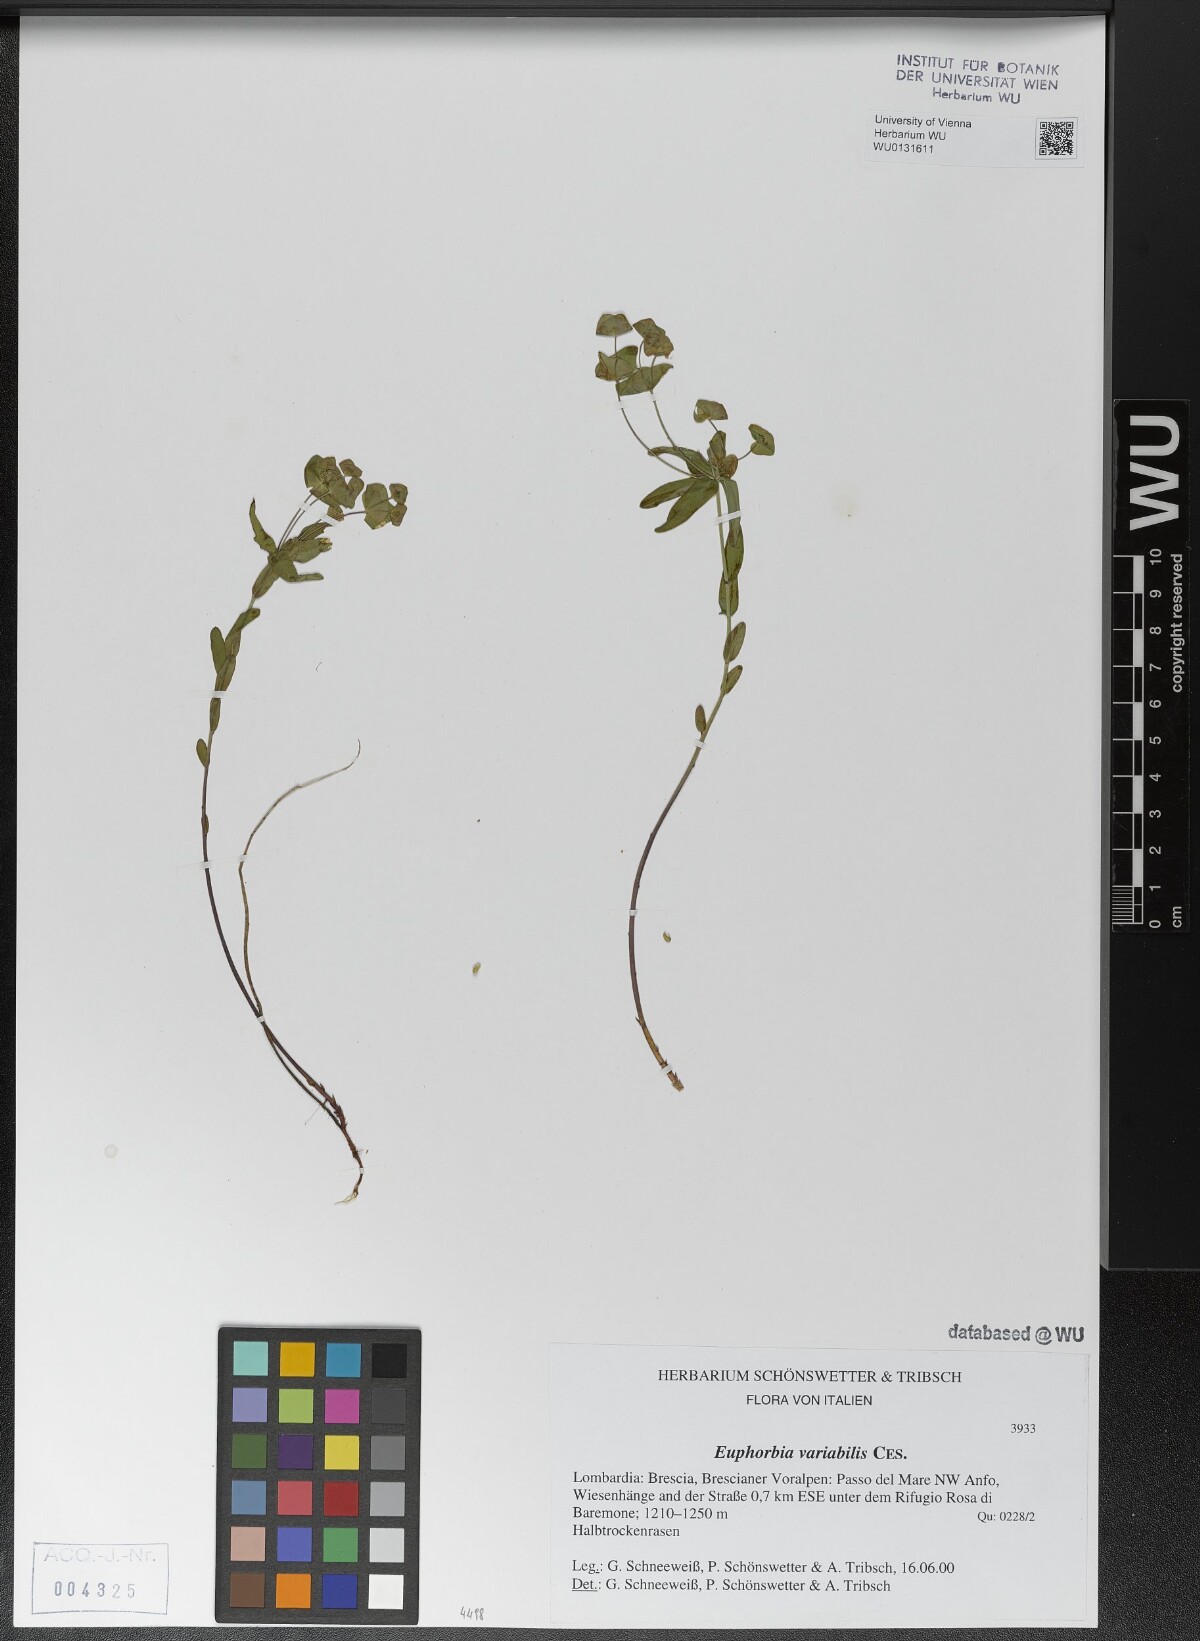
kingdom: Plantae
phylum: Tracheophyta
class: Magnoliopsida
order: Malpighiales
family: Euphorbiaceae
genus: Euphorbia
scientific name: Euphorbia variabilis
